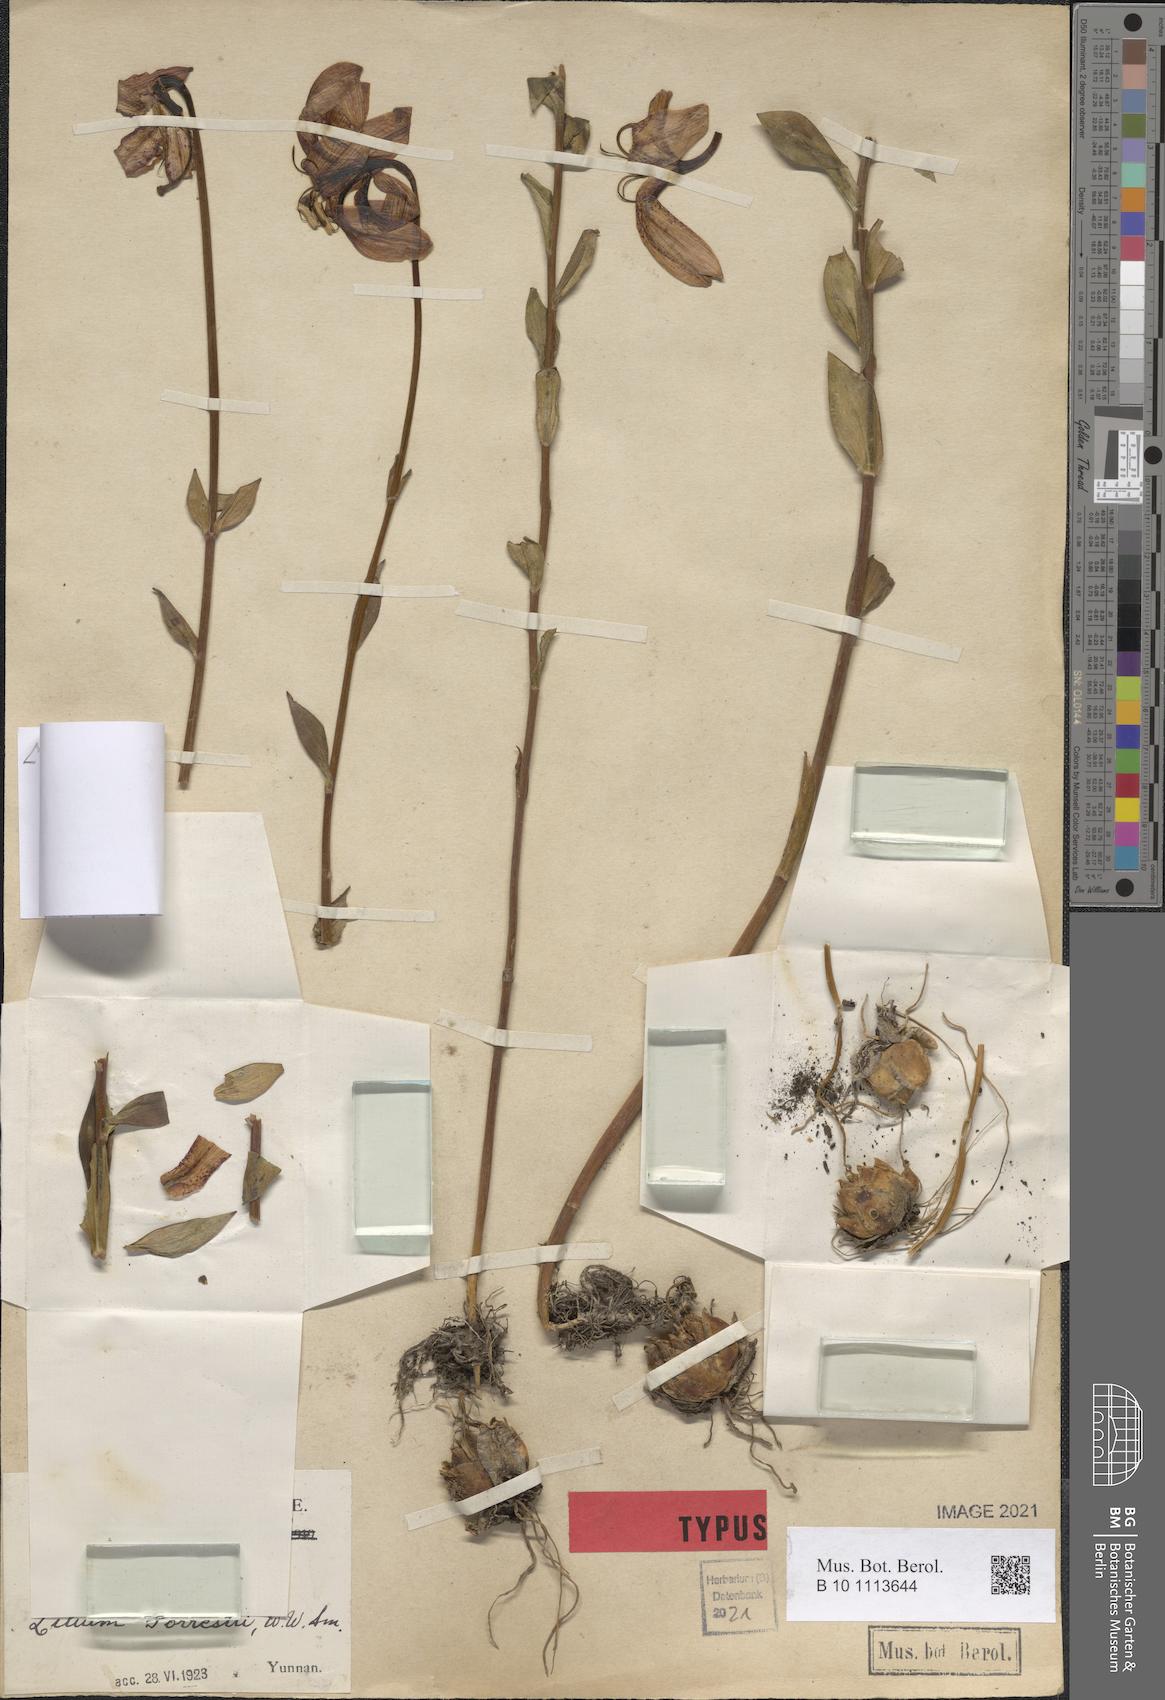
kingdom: Plantae
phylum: Tracheophyta
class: Liliopsida
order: Liliales
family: Liliaceae
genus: Lilium
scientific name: Lilium duchartrei
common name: Duchartre lily
